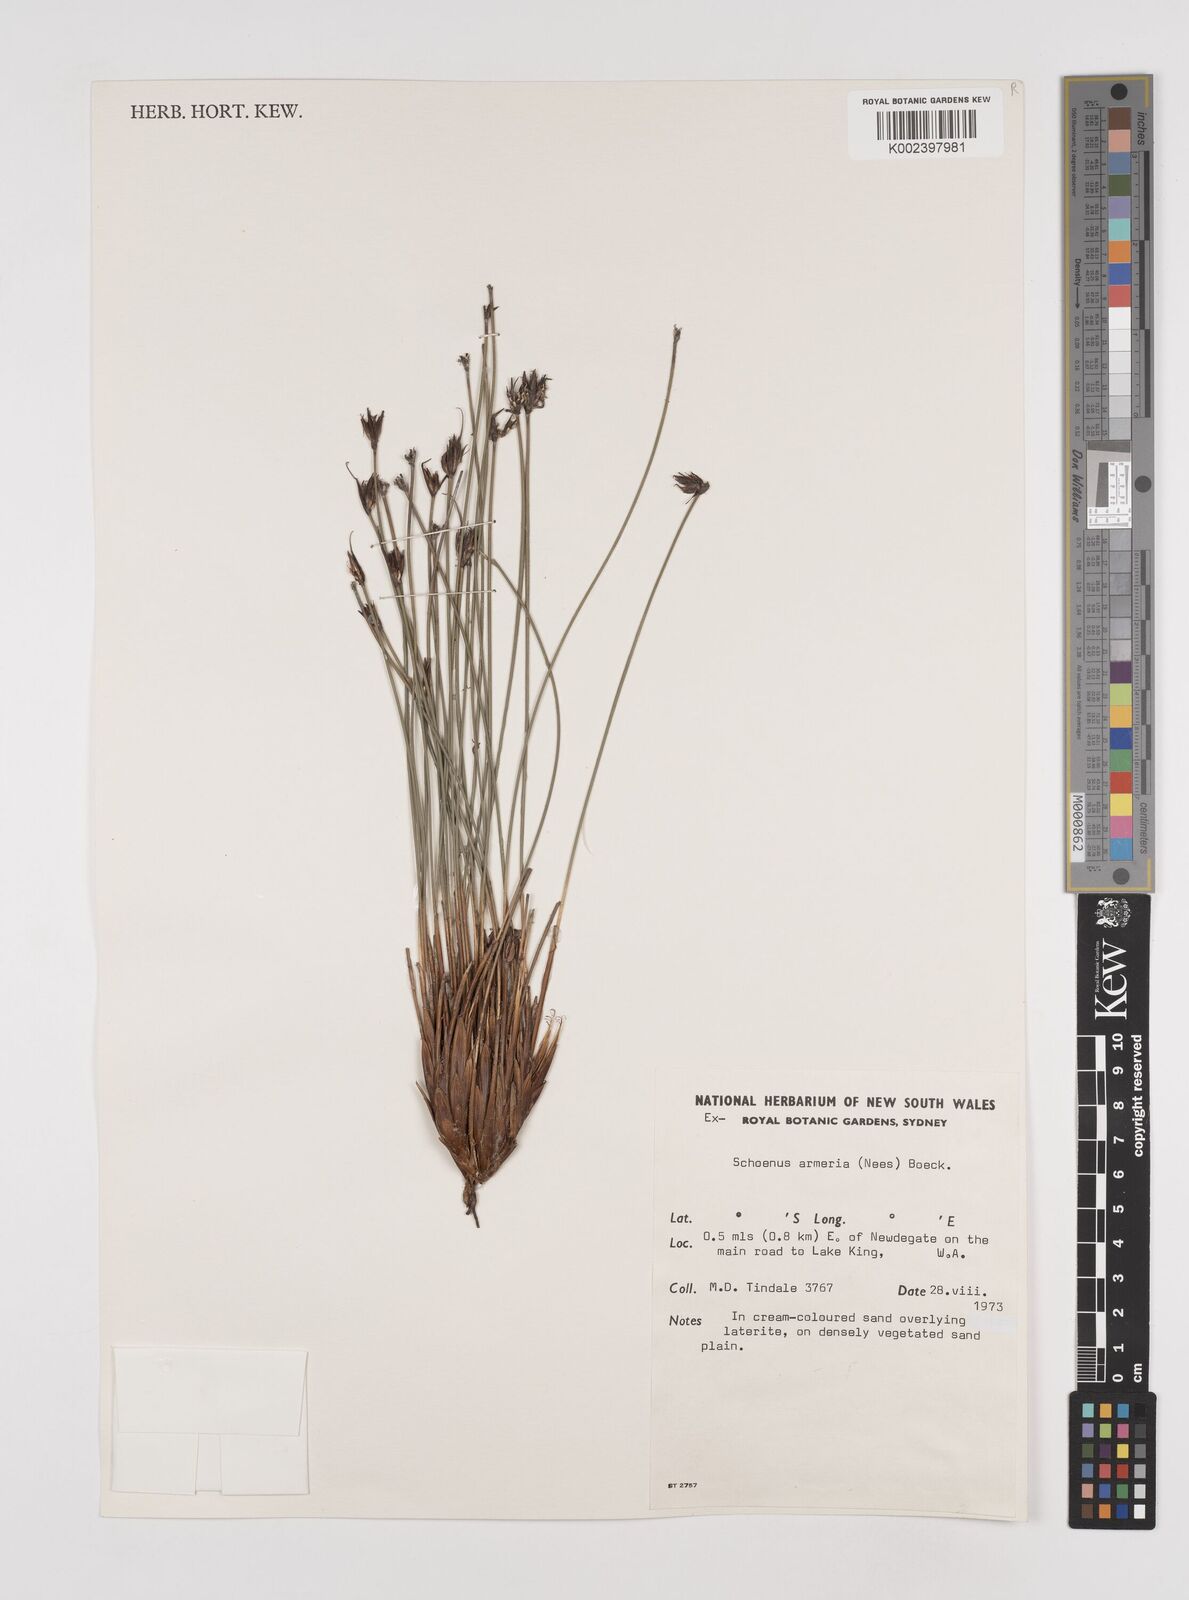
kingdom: Plantae
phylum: Tracheophyta
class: Liliopsida
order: Poales
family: Cyperaceae
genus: Schoenus
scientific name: Schoenus globifer
